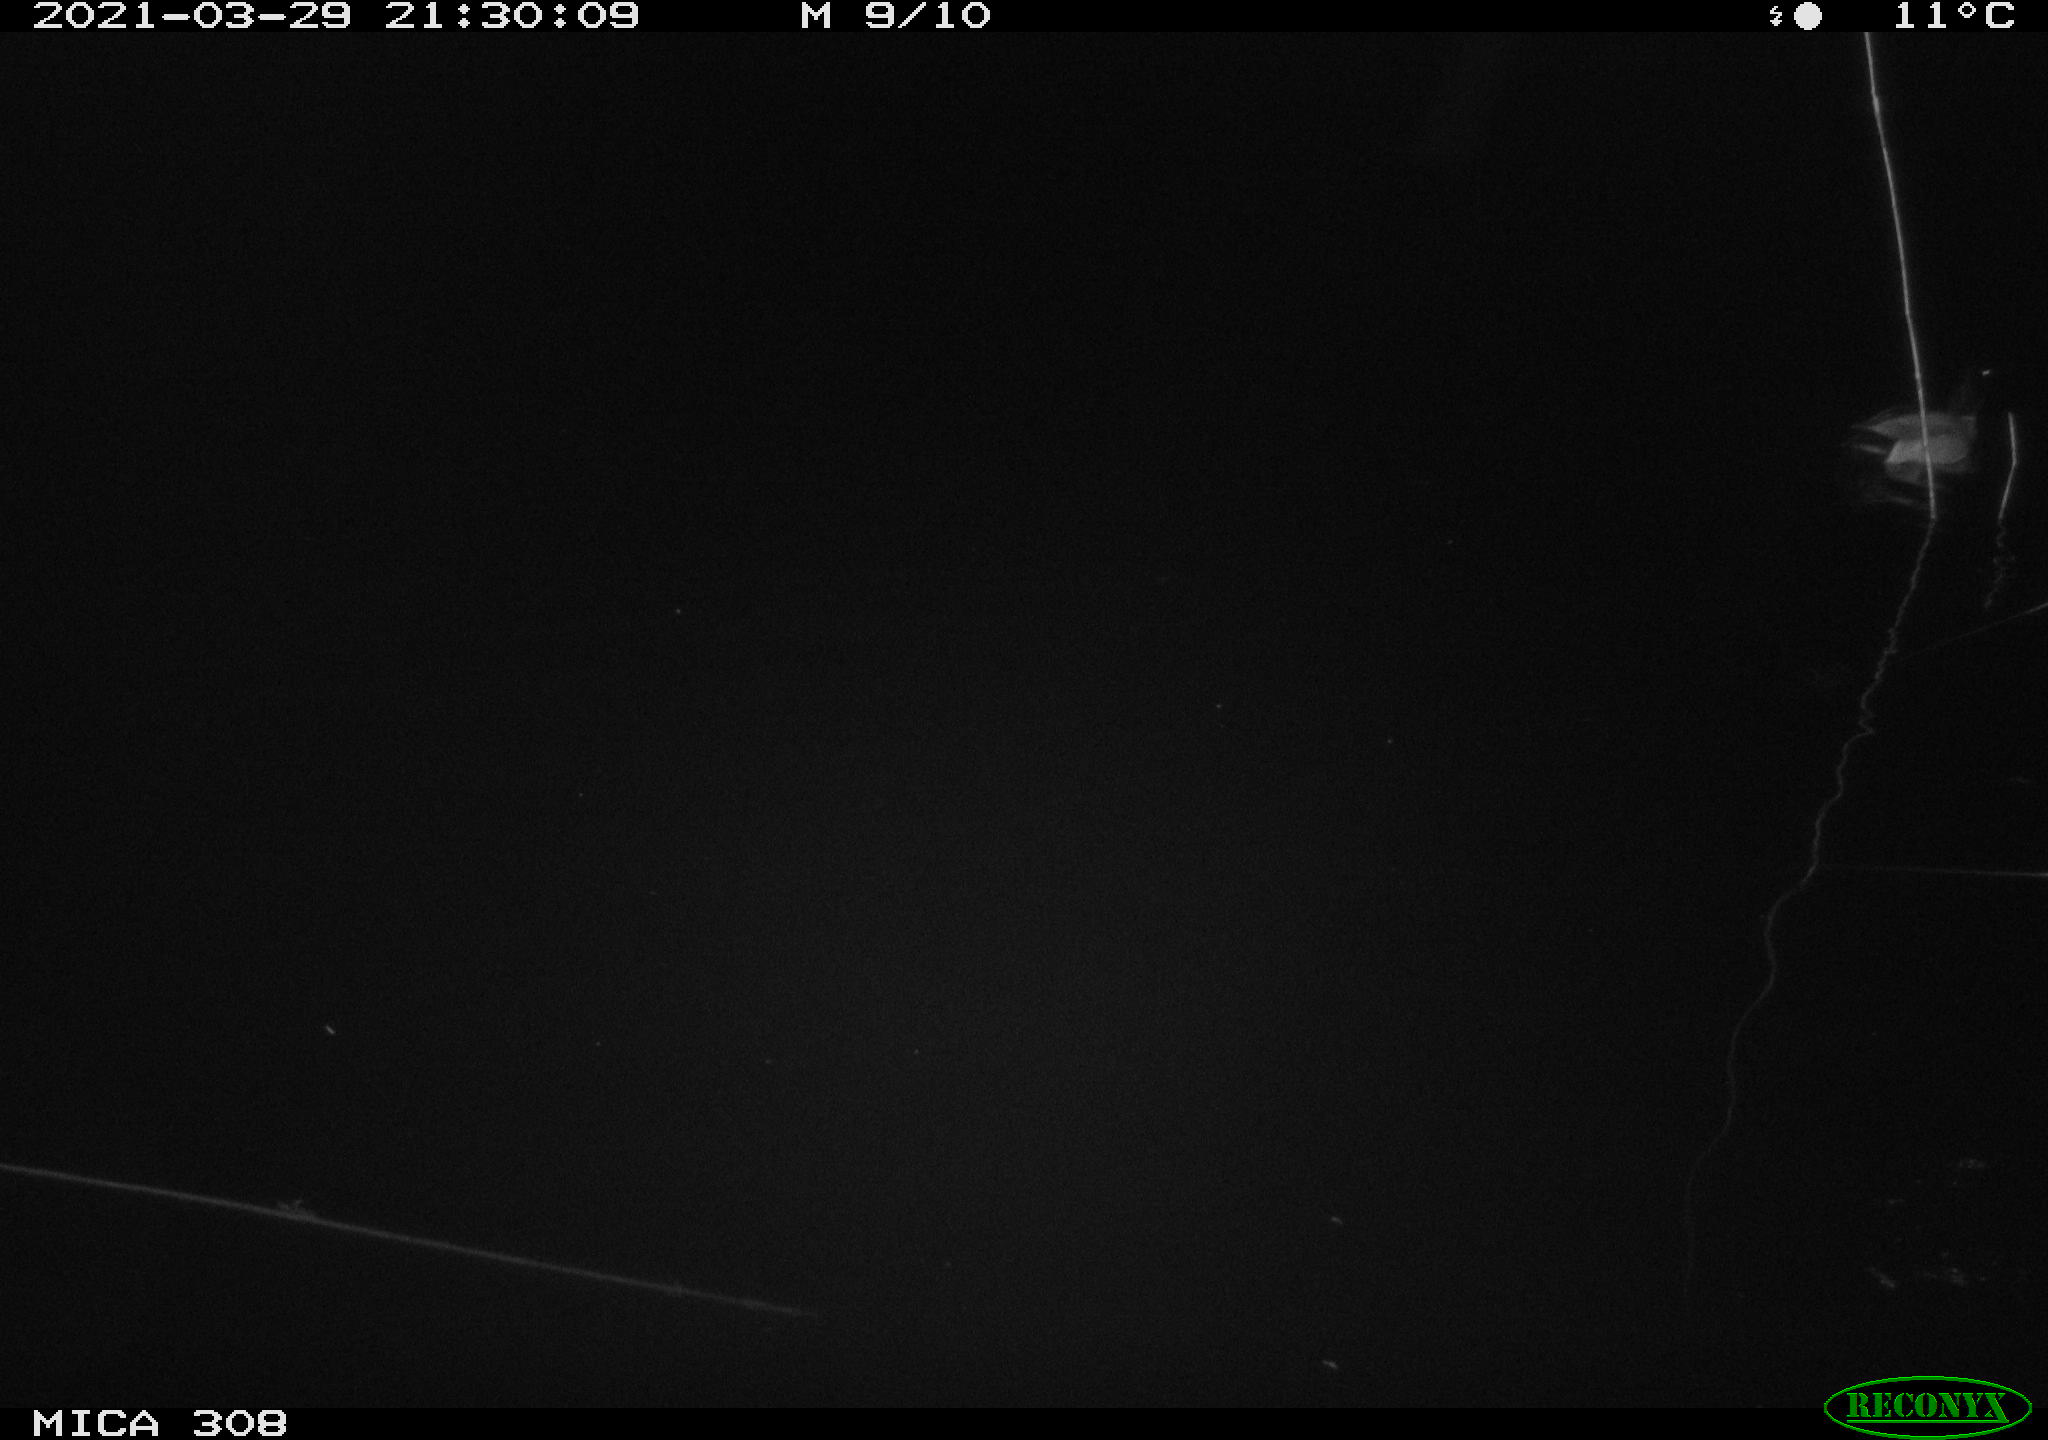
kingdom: Animalia
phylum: Chordata
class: Aves
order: Anseriformes
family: Anatidae
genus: Anas
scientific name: Anas platyrhynchos
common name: Mallard
